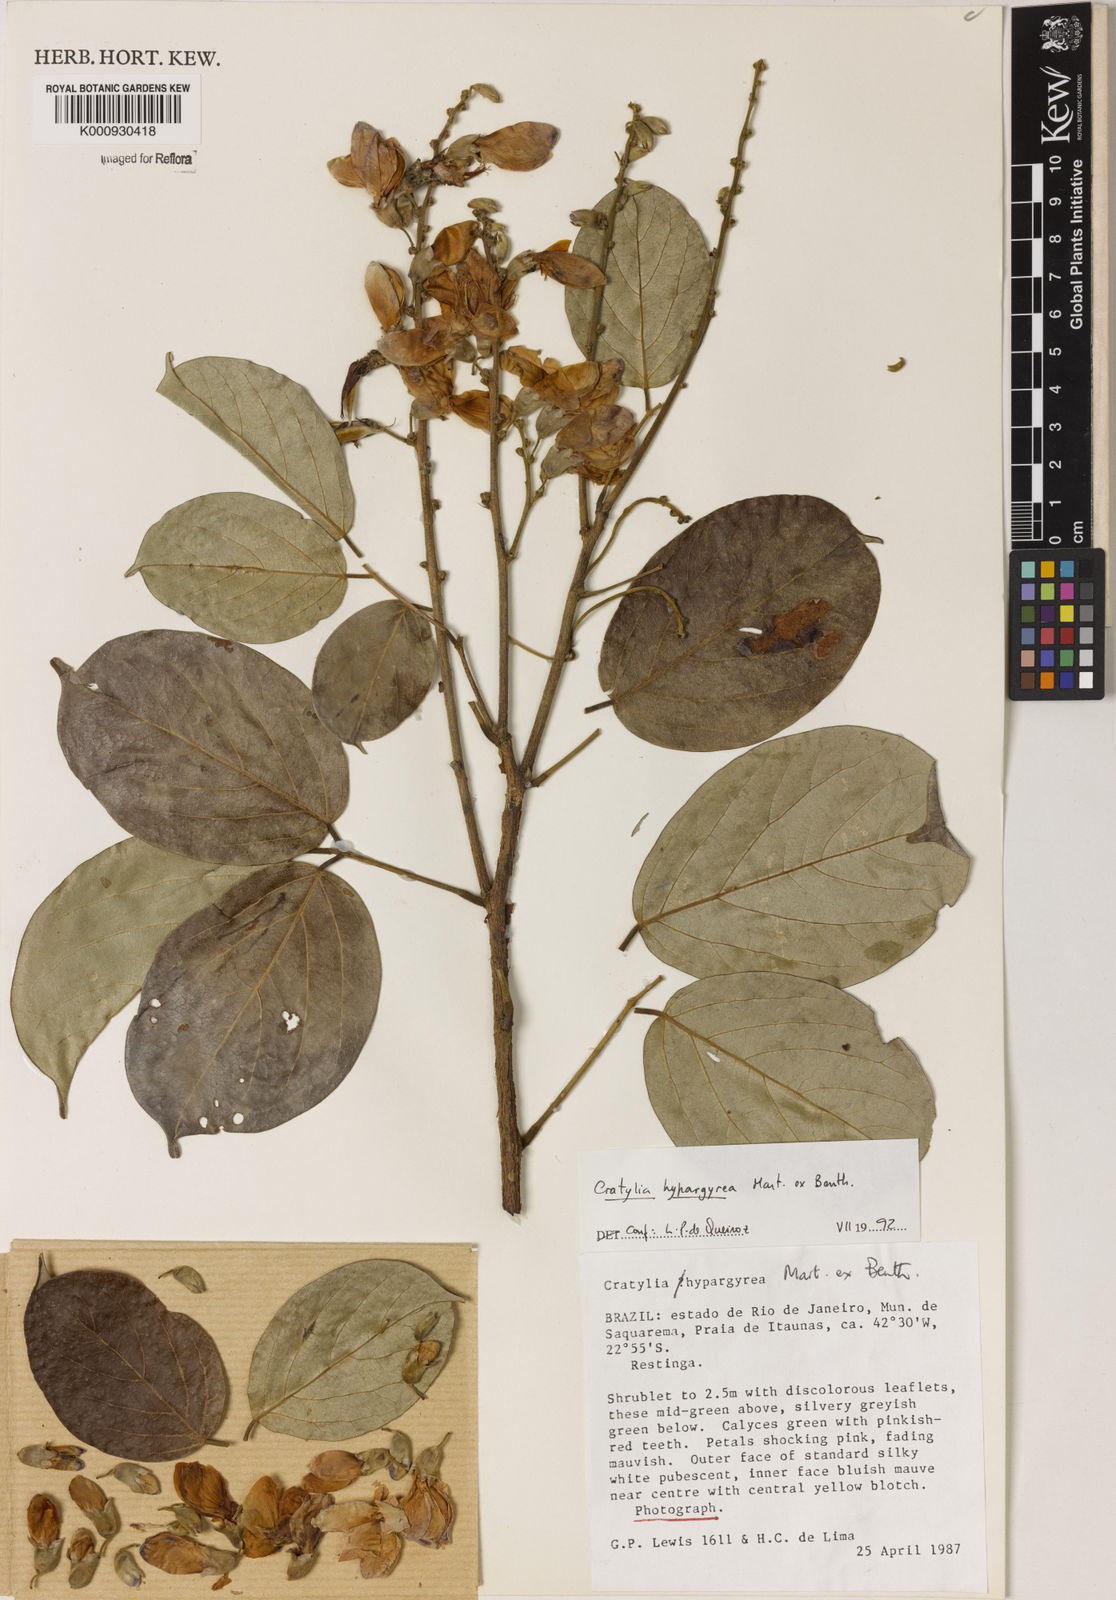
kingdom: Plantae
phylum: Tracheophyta
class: Magnoliopsida
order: Fabales
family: Fabaceae
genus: Cratylia
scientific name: Cratylia
